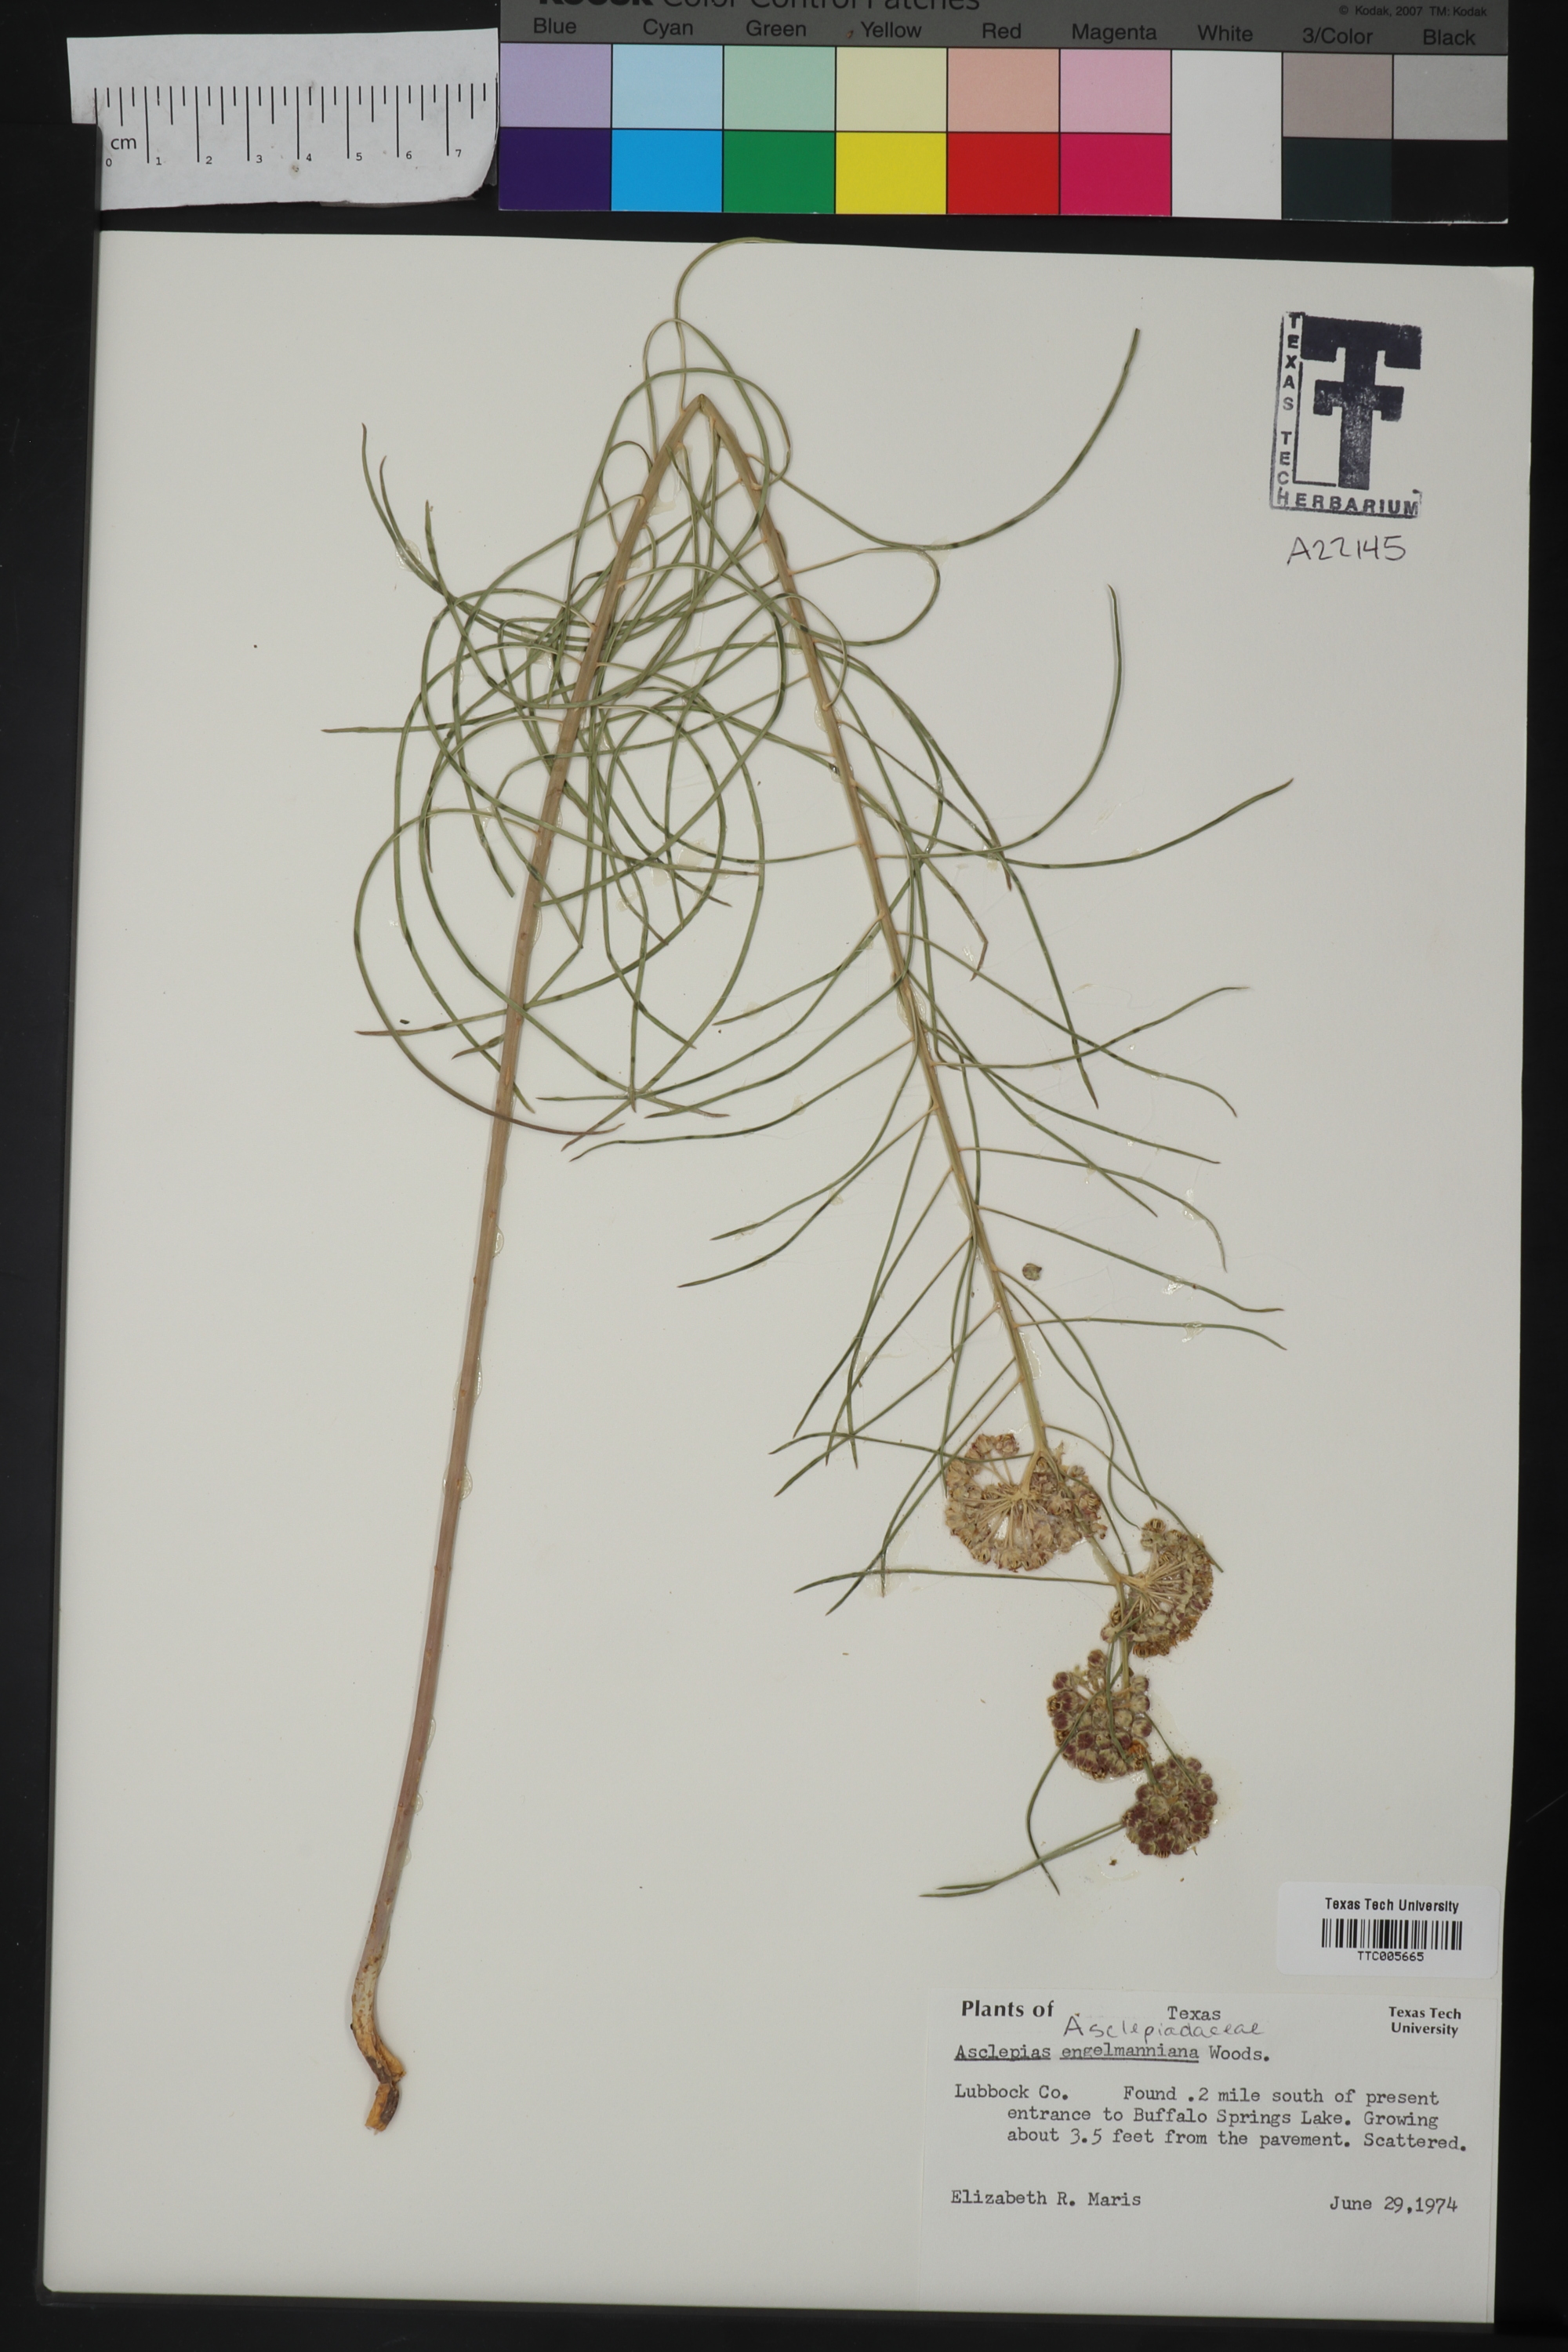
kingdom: Plantae
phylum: Tracheophyta
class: Magnoliopsida
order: Gentianales
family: Apocynaceae
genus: Asclepias
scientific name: Asclepias engelmanniana
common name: Engelmann's milkweed
